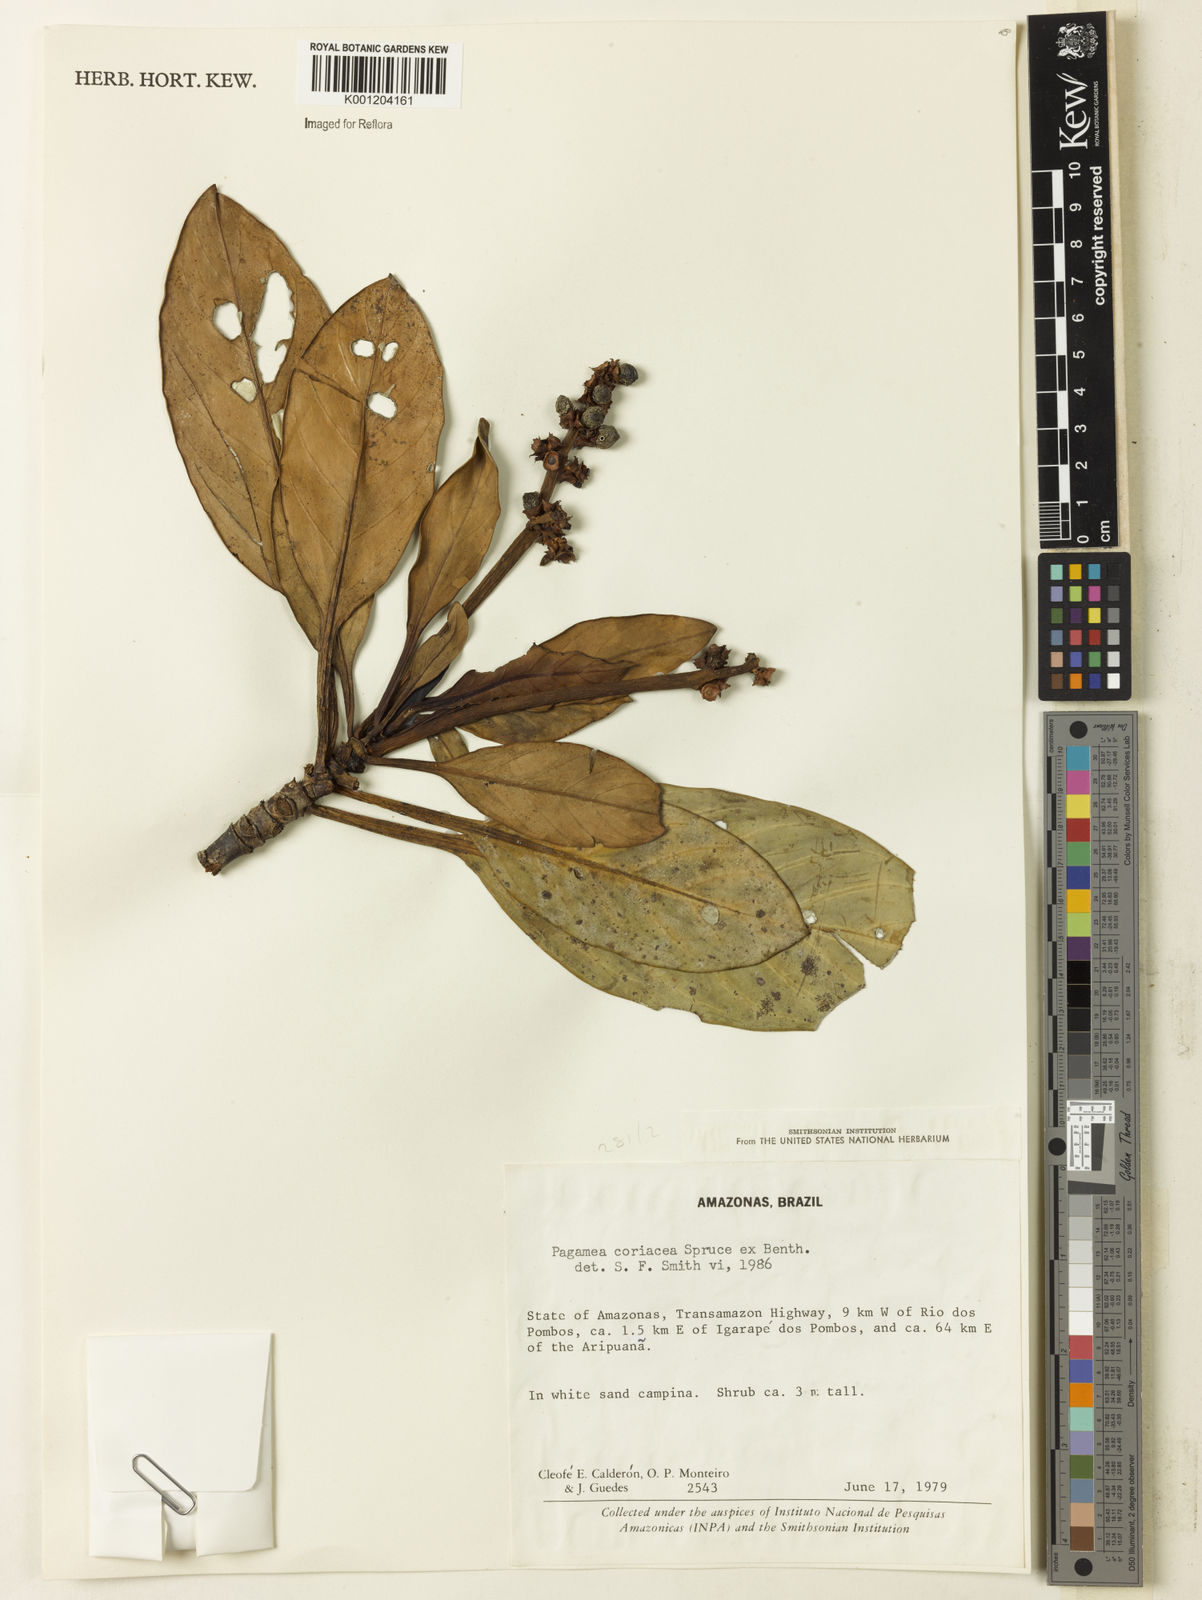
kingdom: Plantae
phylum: Tracheophyta
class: Magnoliopsida
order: Gentianales
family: Rubiaceae
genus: Pagamea
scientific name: Pagamea coriacea
